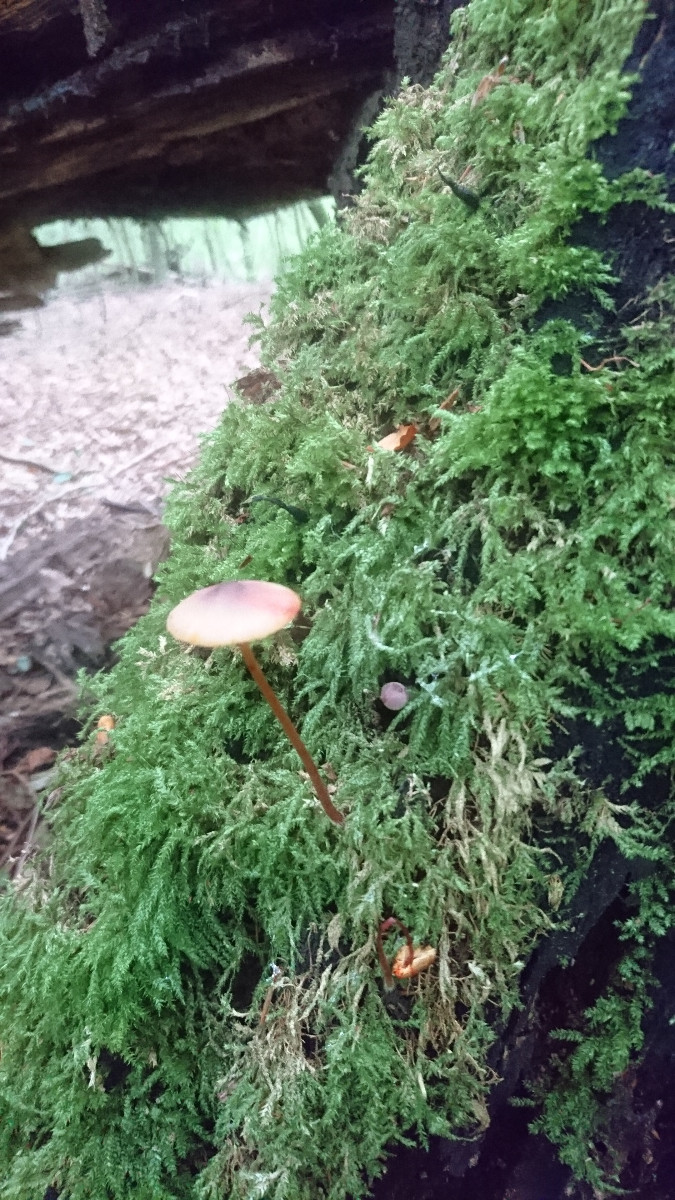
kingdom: Fungi
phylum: Basidiomycota
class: Agaricomycetes
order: Agaricales
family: Mycenaceae
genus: Mycena
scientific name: Mycena crocata
